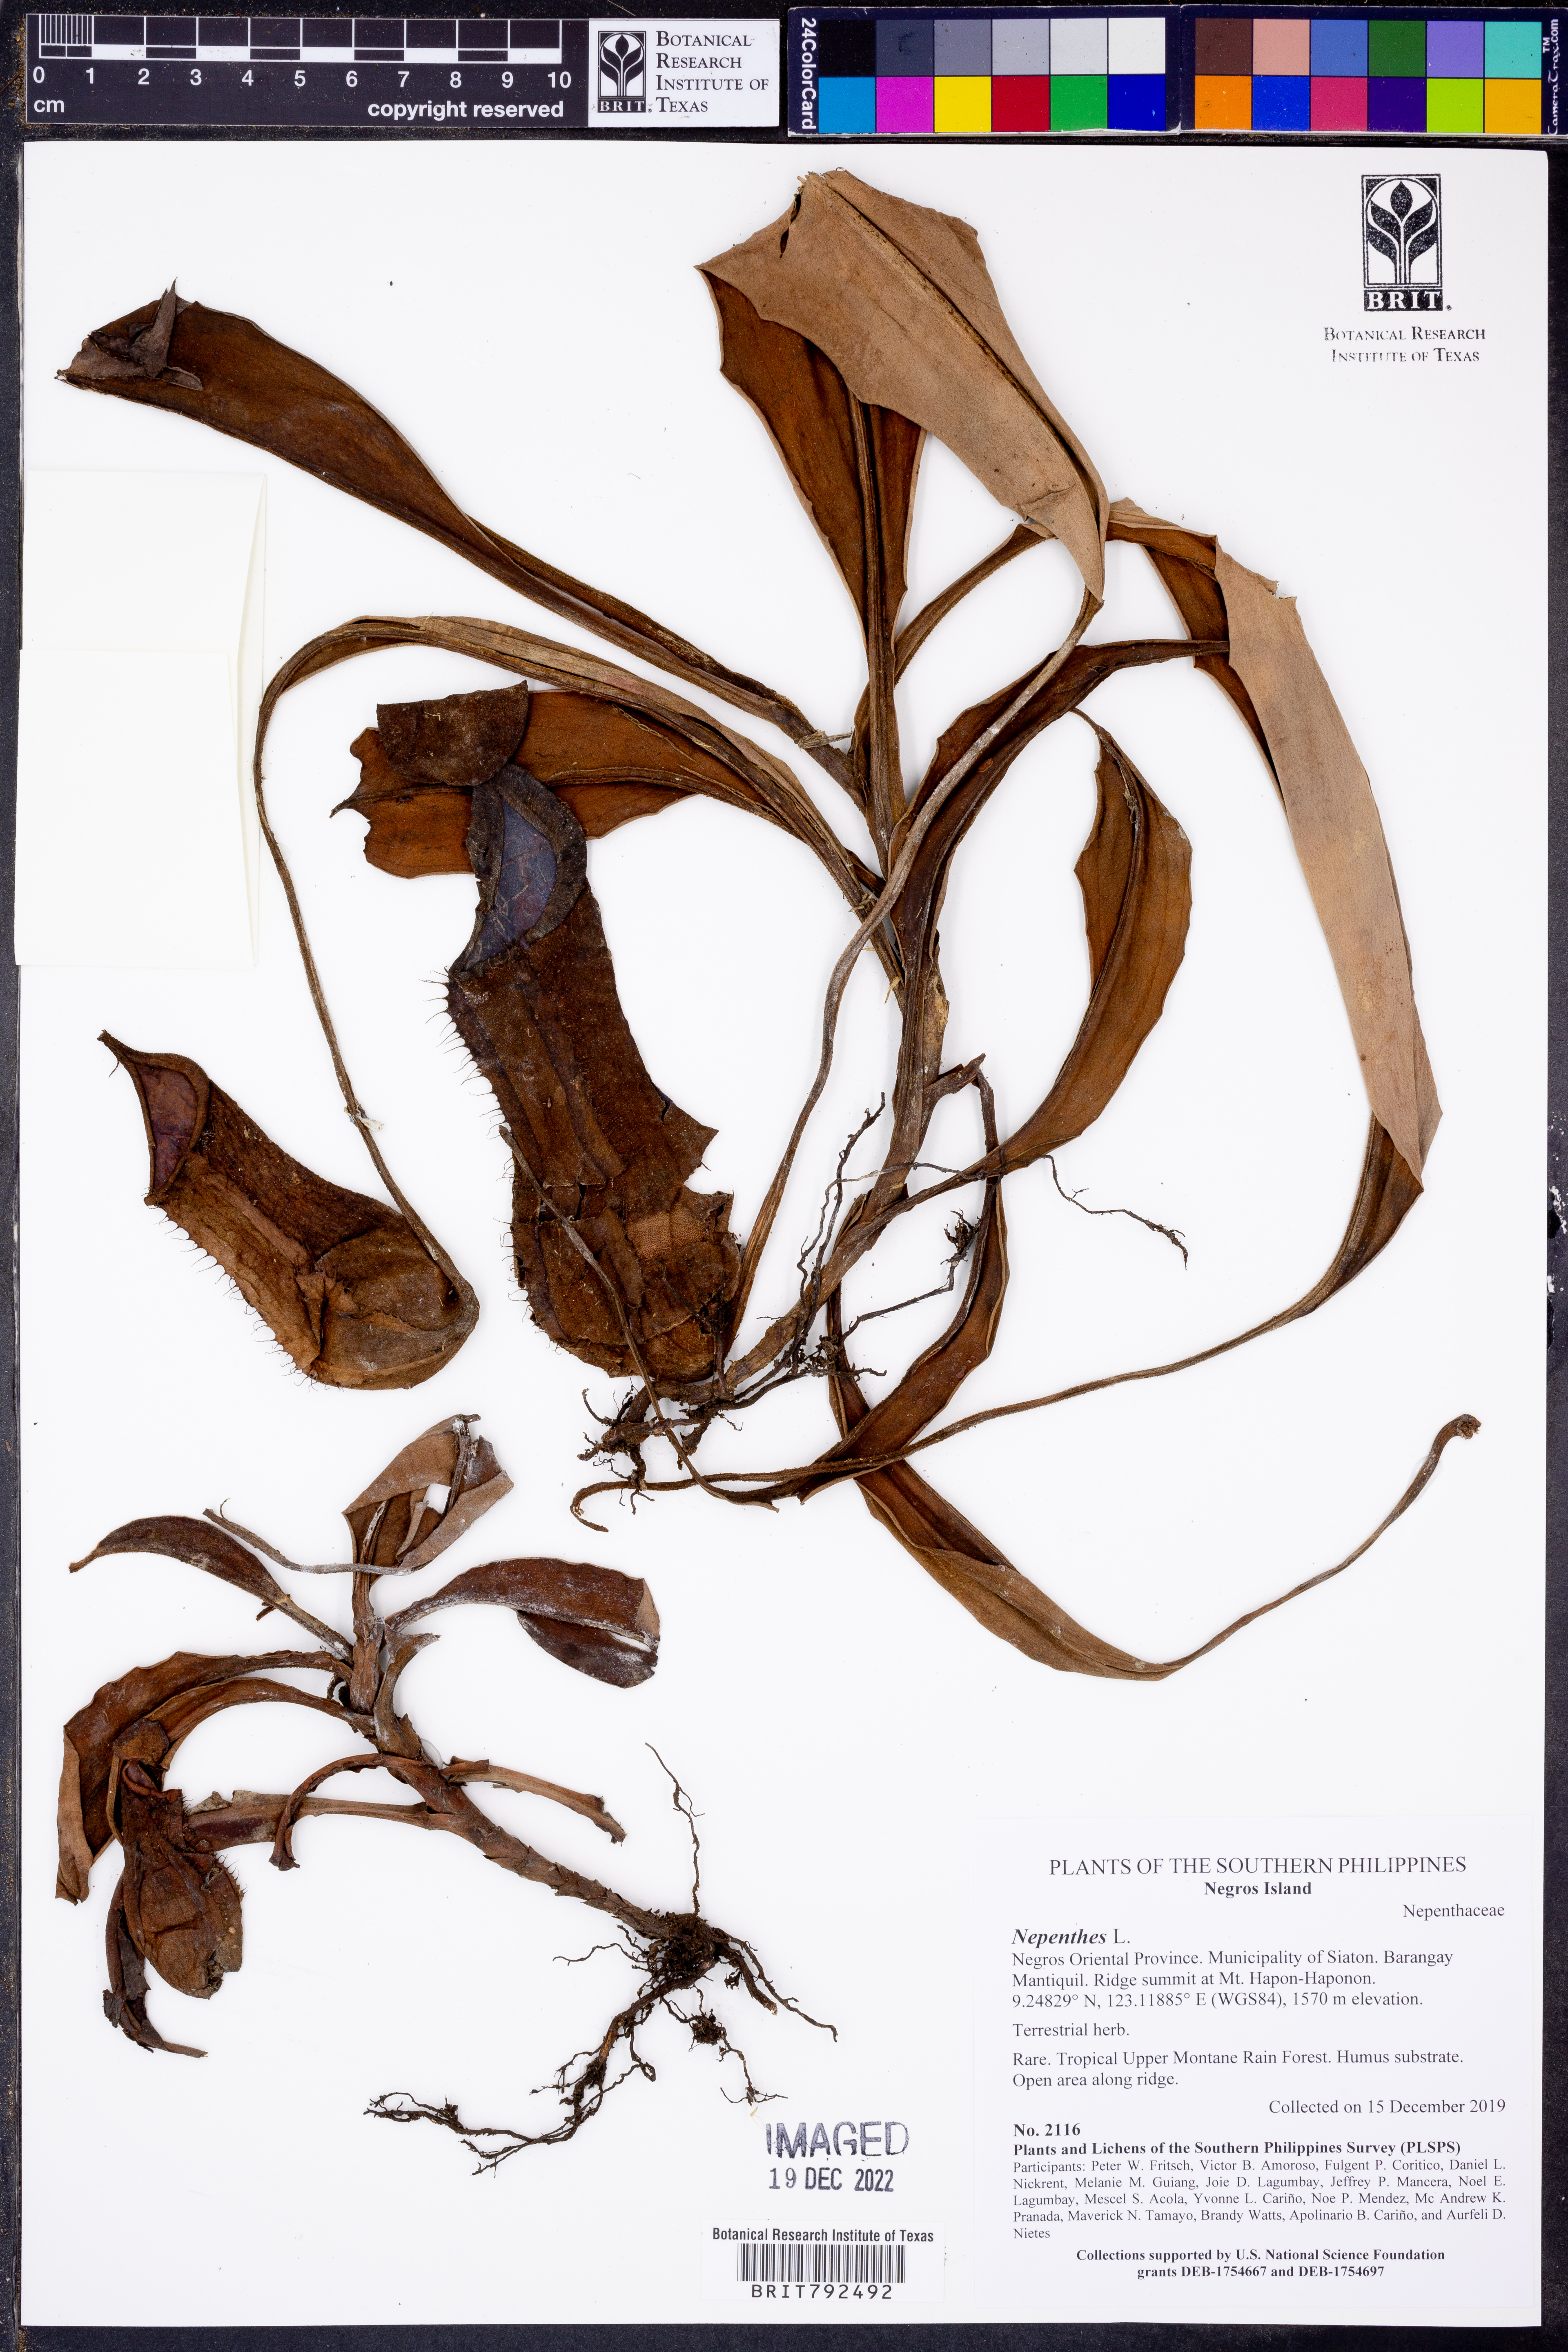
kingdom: Plantae
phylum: Tracheophyta
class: Magnoliopsida
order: Caryophyllales
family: Nepenthaceae
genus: Nepenthes
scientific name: Nepenthes
